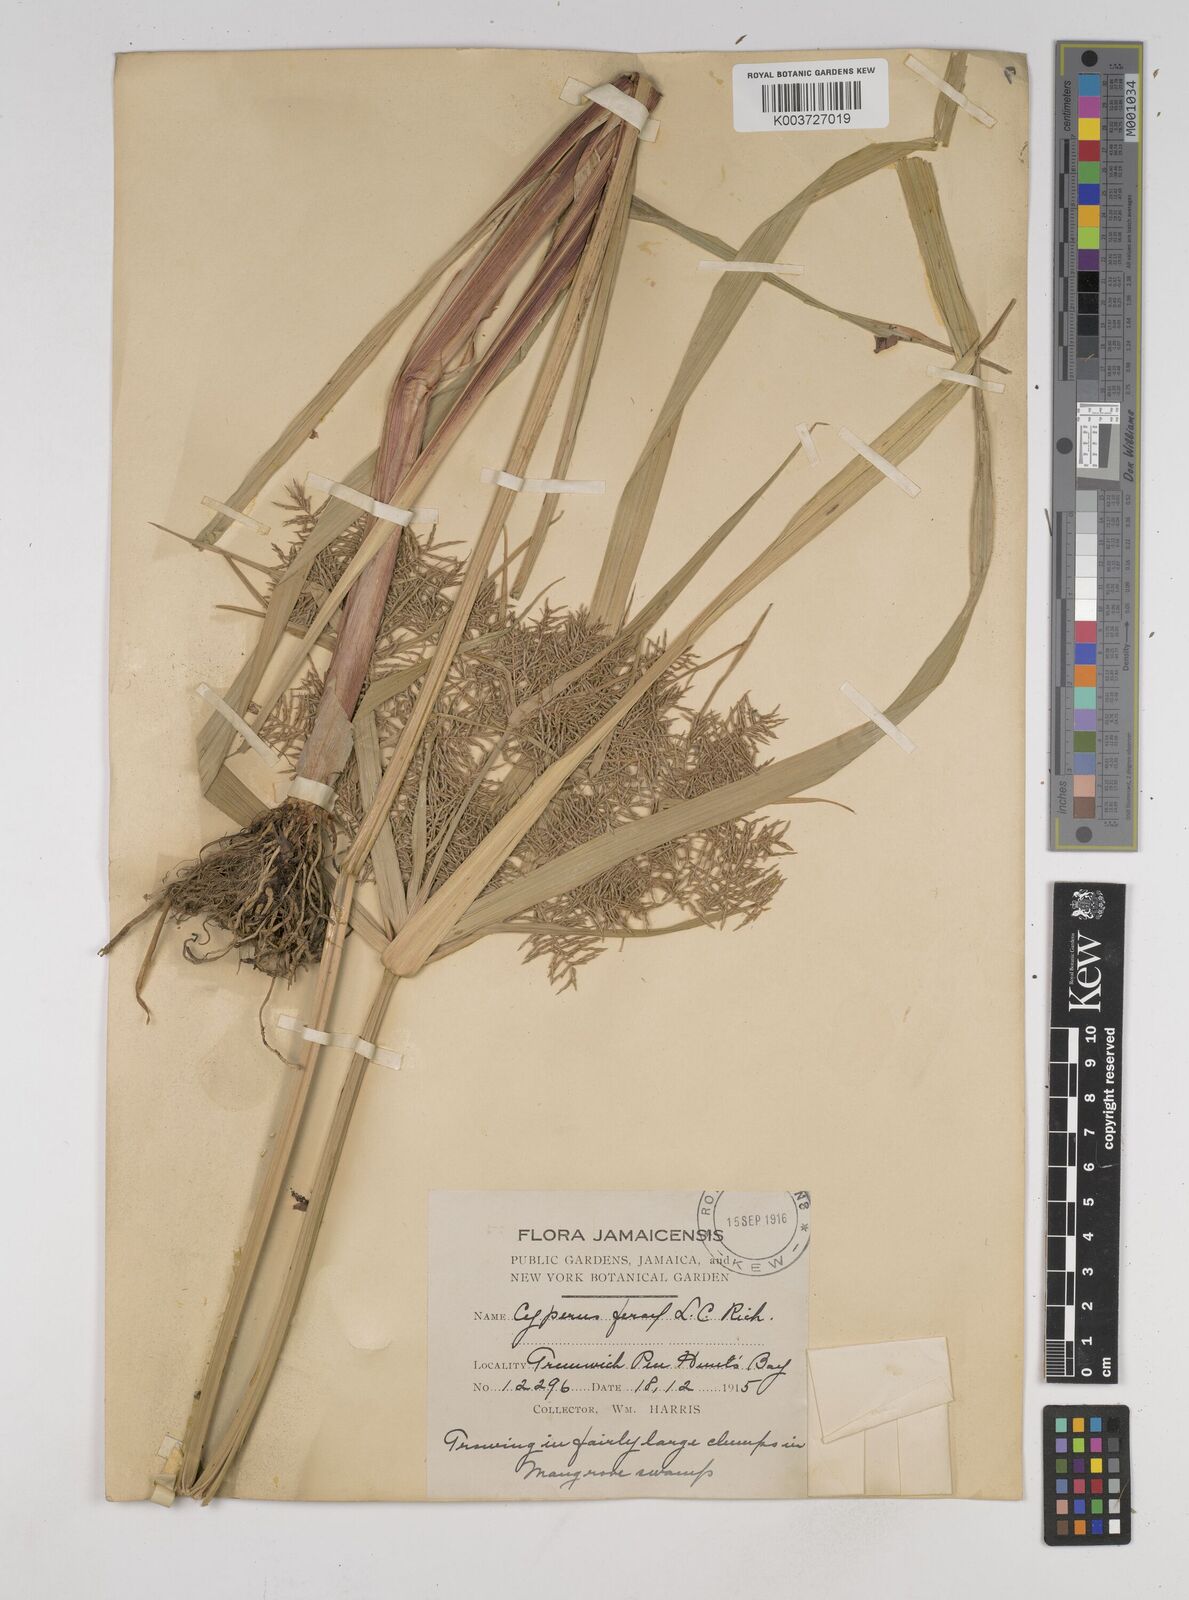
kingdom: Plantae
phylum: Tracheophyta
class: Liliopsida
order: Poales
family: Cyperaceae
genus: Cyperus
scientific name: Cyperus odoratus
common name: Fragrant flatsedge
